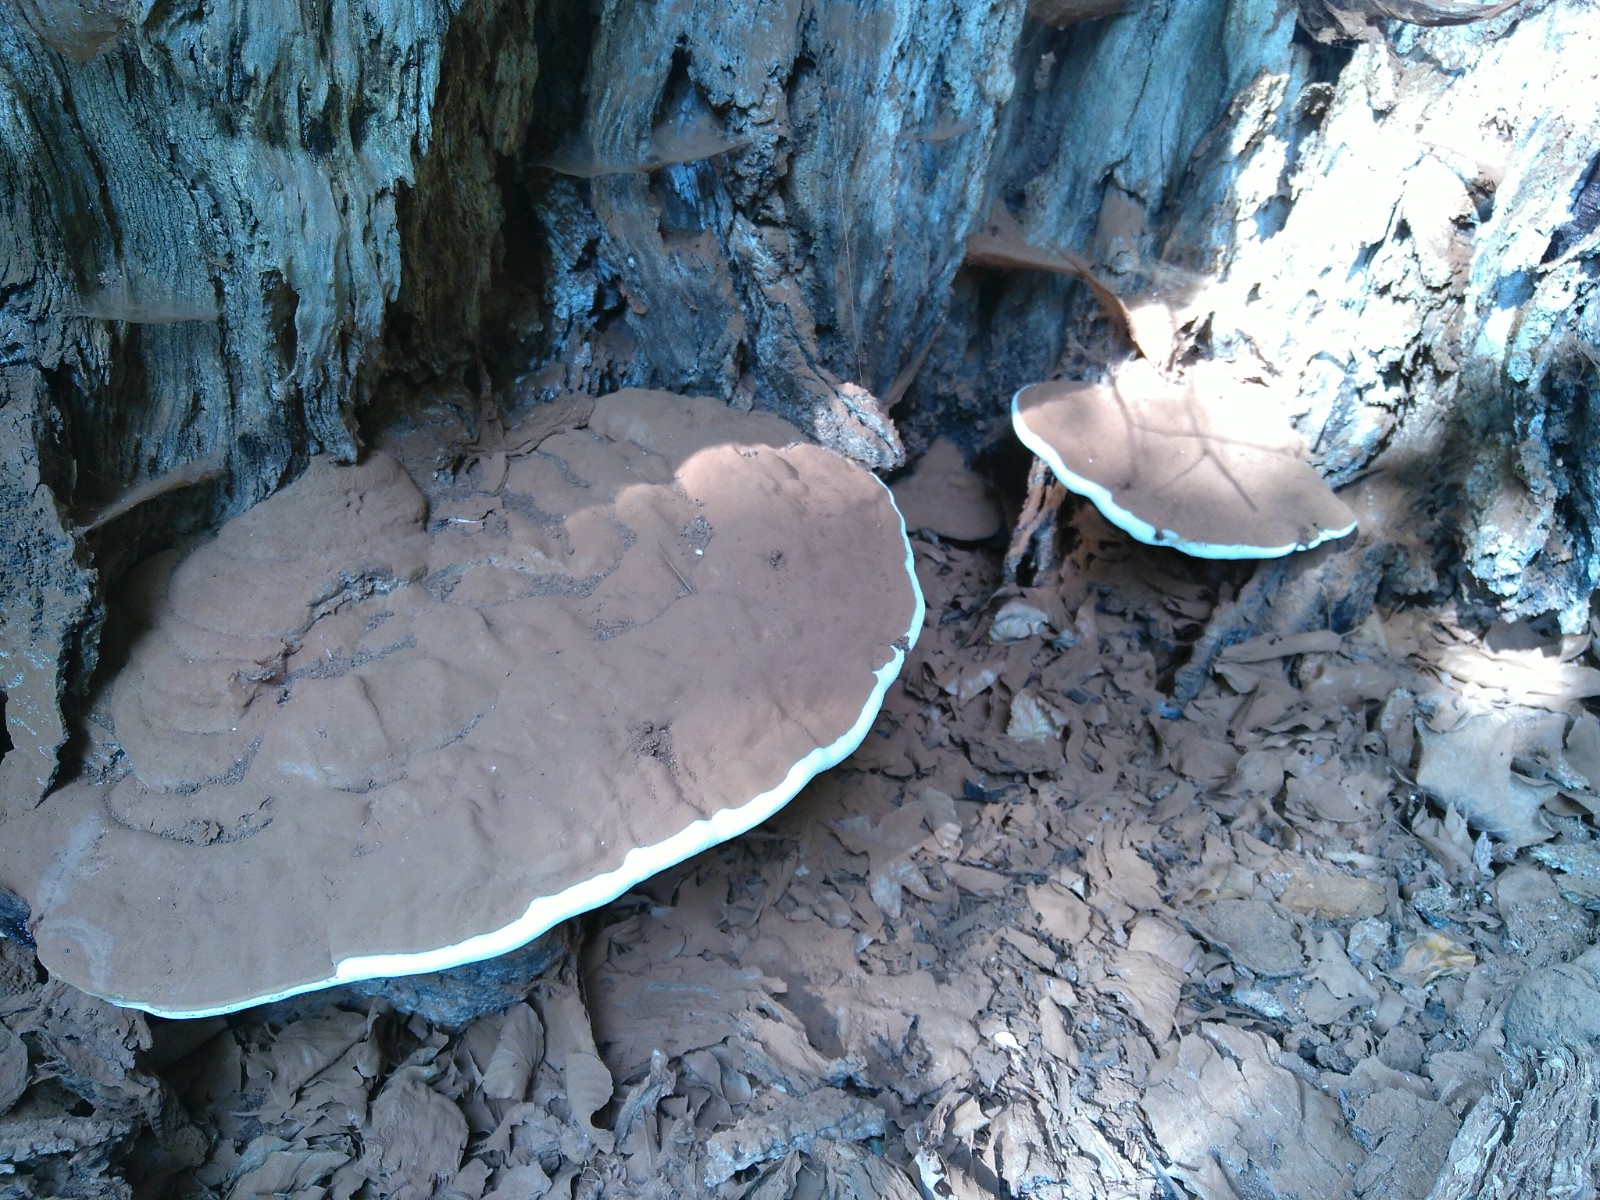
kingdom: Fungi
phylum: Basidiomycota
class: Agaricomycetes
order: Polyporales
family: Polyporaceae
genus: Ganoderma
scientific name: Ganoderma
